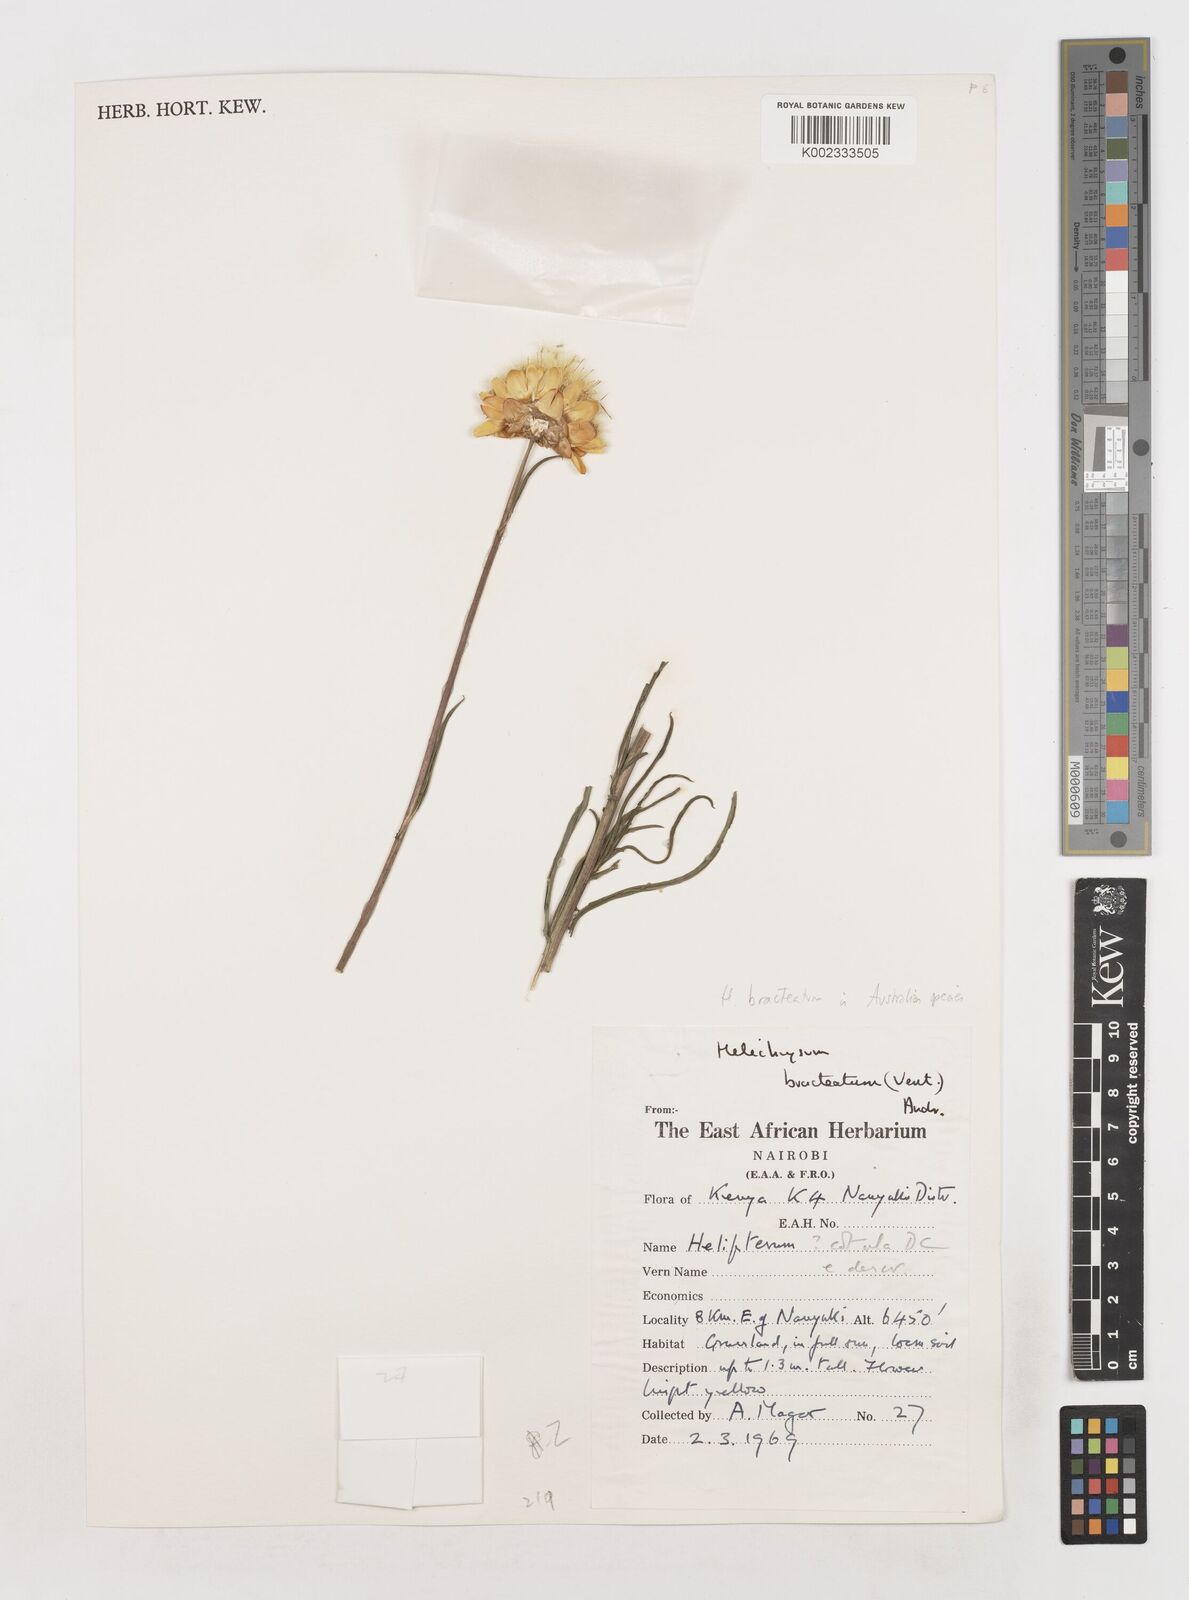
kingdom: Plantae
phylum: Tracheophyta
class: Magnoliopsida
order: Asterales
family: Asteraceae
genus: Xerochrysum
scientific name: Xerochrysum bracteatum
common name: Bracted strawflower
